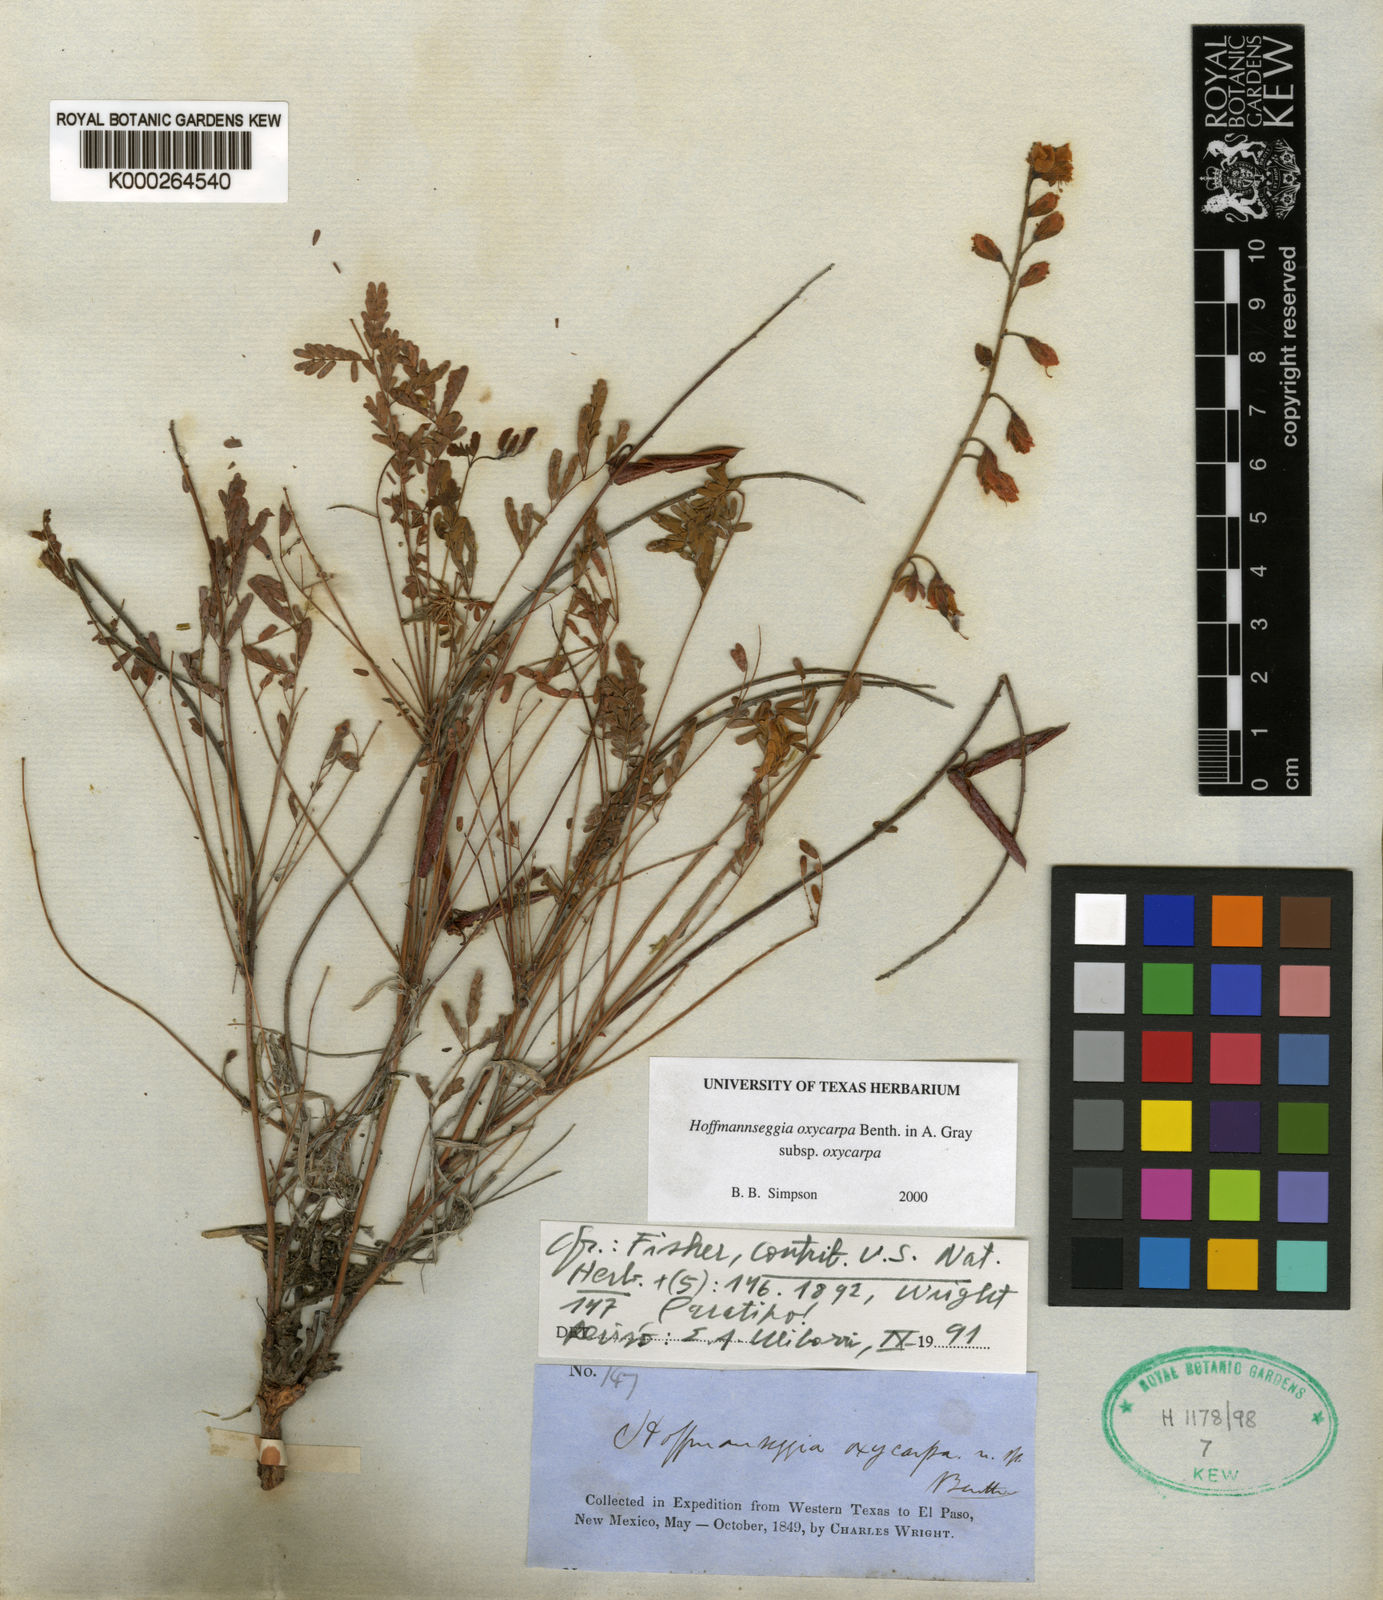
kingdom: Plantae
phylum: Tracheophyta
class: Magnoliopsida
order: Fabales
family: Fabaceae
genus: Hoffmannseggia
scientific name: Hoffmannseggia oxycarpa
